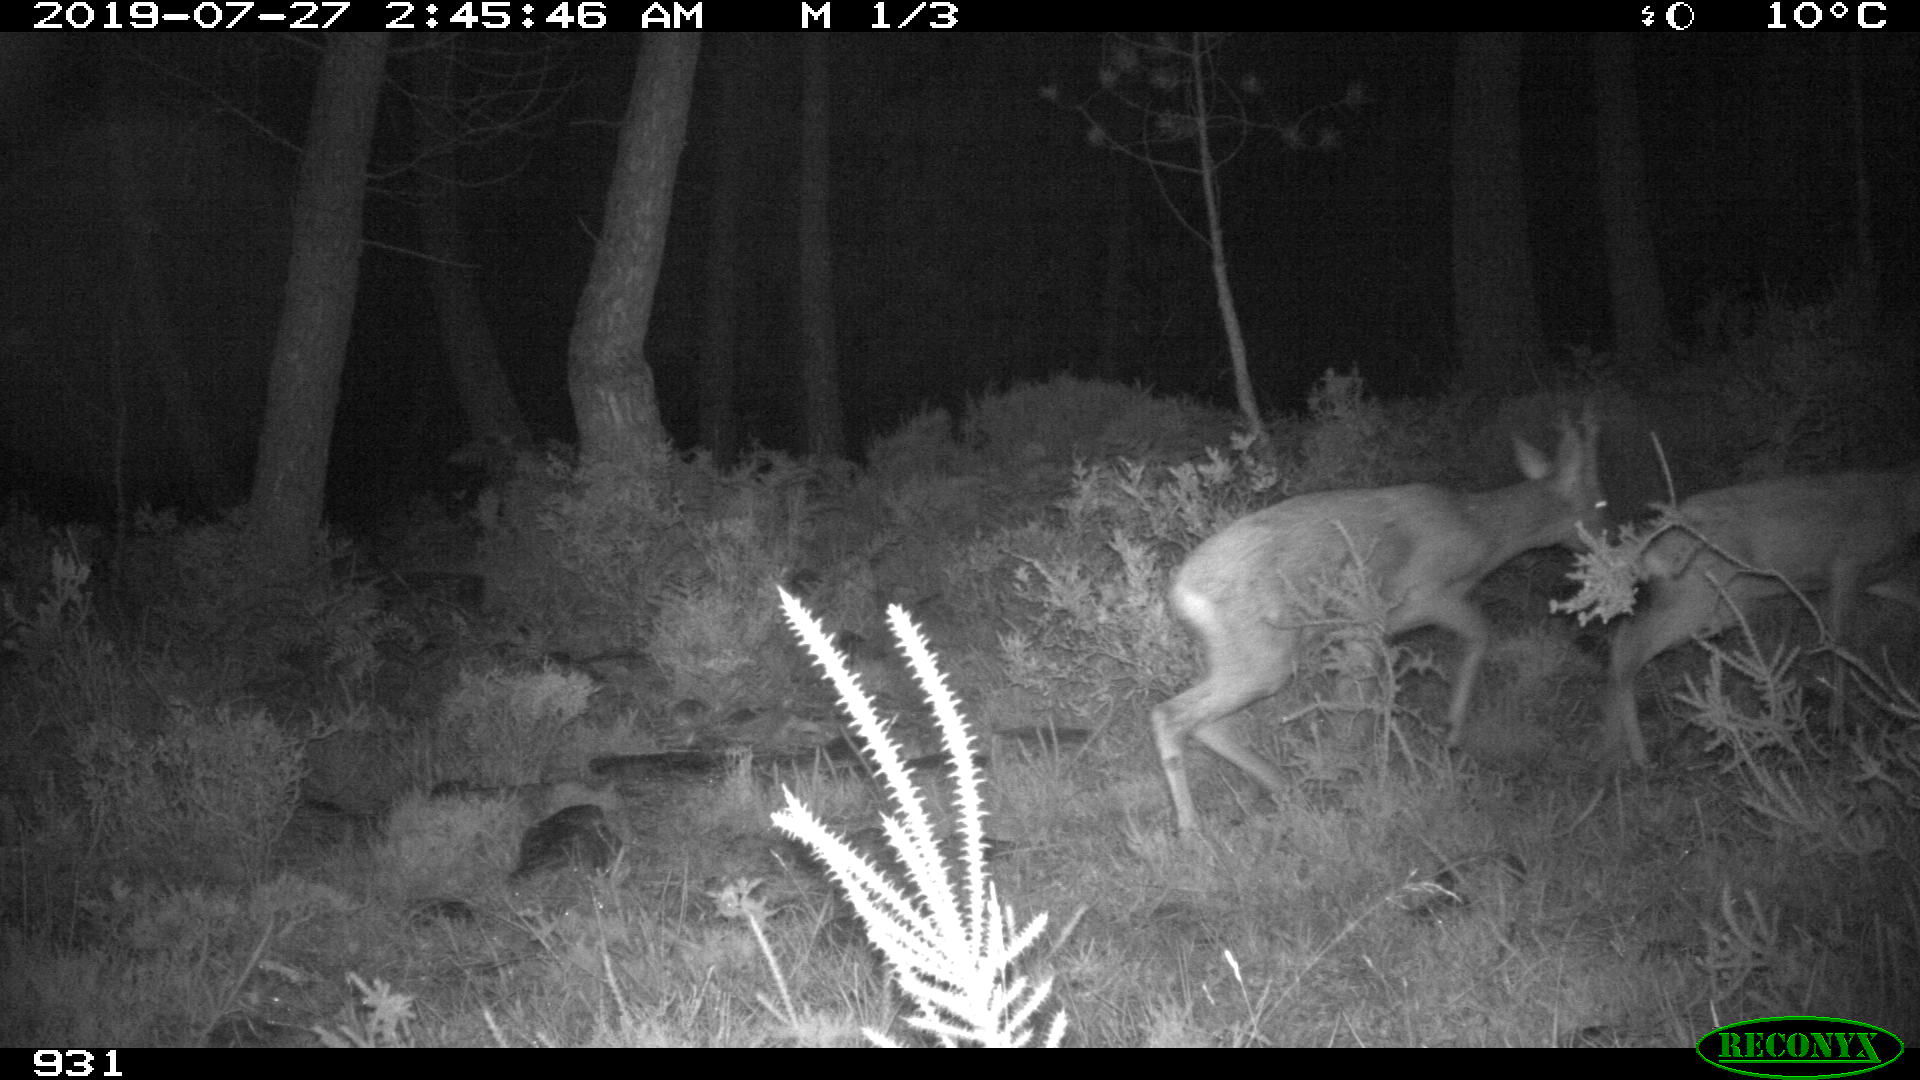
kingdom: Animalia
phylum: Chordata
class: Mammalia
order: Artiodactyla
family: Cervidae
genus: Capreolus
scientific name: Capreolus capreolus
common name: Western roe deer
